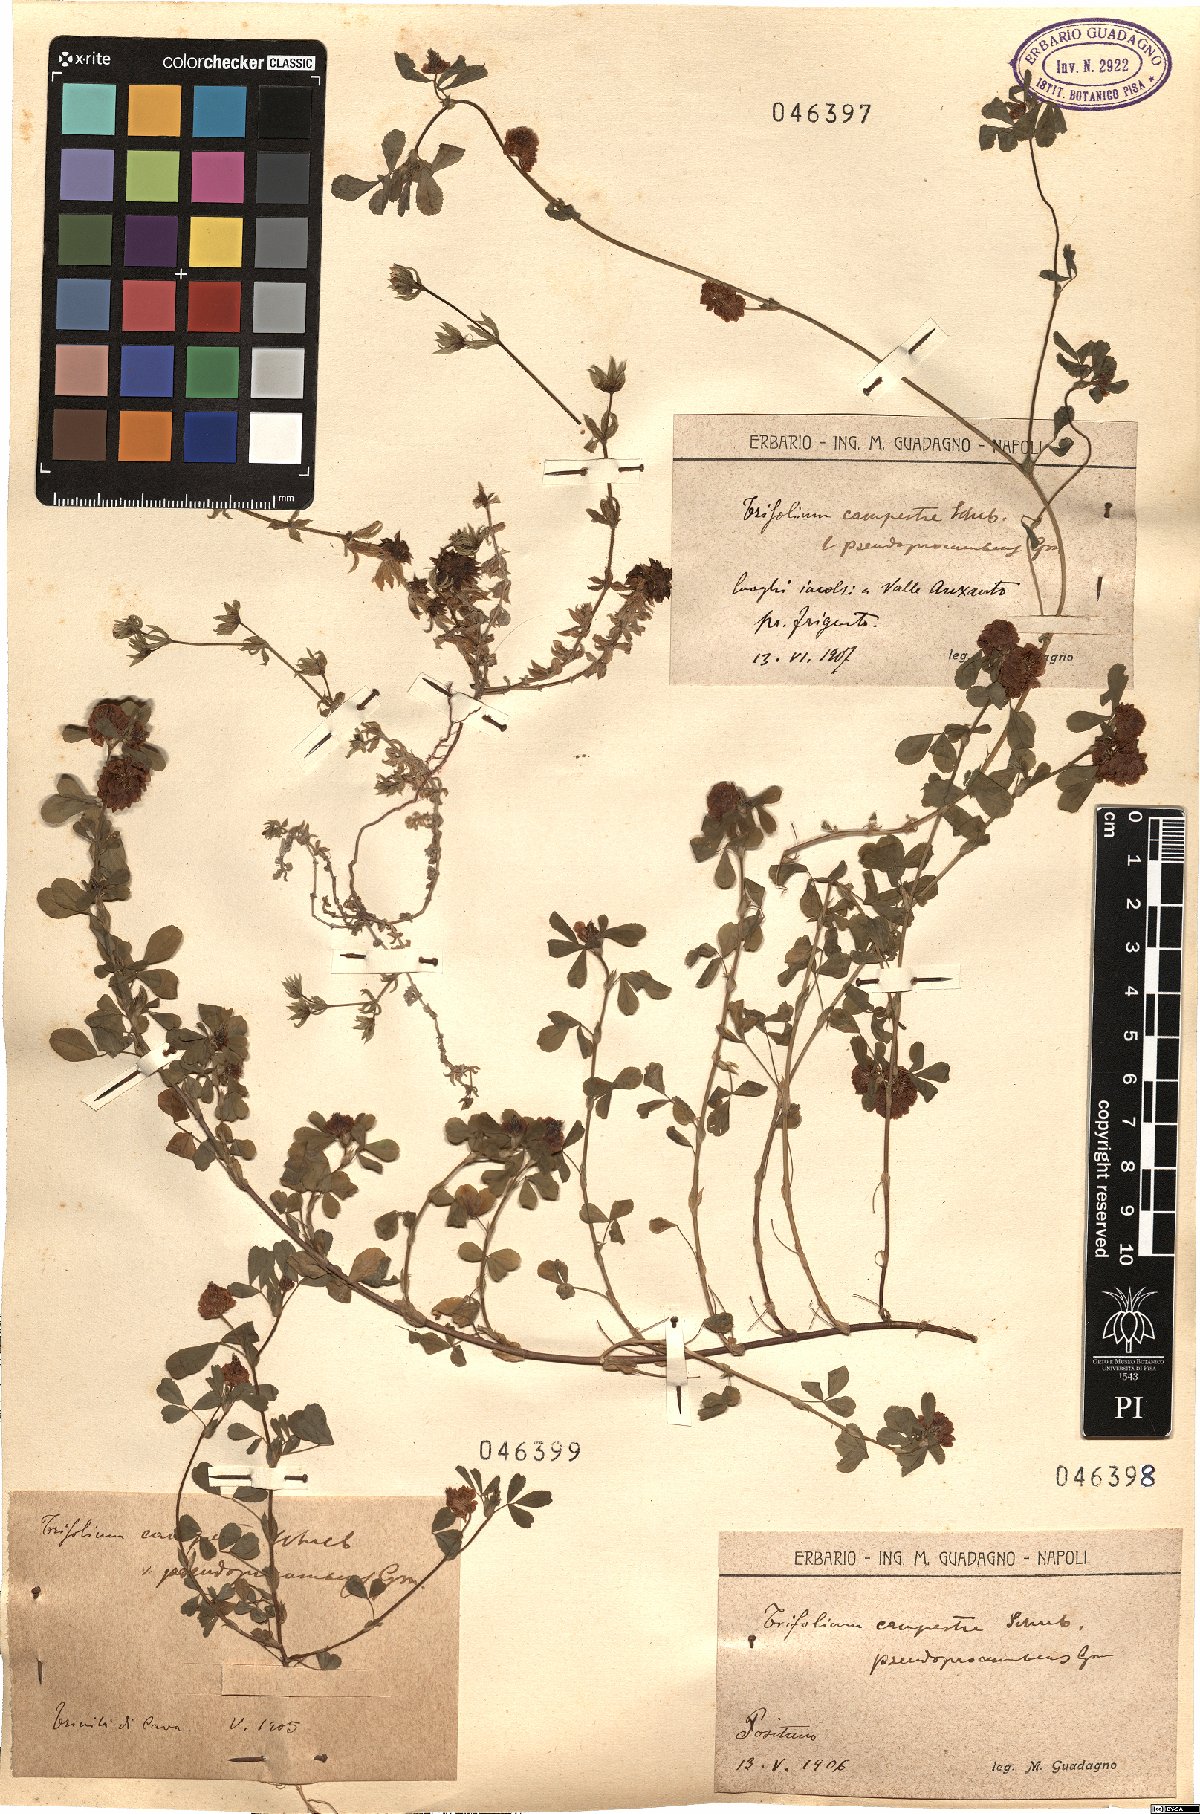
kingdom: Plantae
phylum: Tracheophyta
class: Magnoliopsida
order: Fabales
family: Fabaceae
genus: Trifolium
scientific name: Trifolium campestre
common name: Field clover
